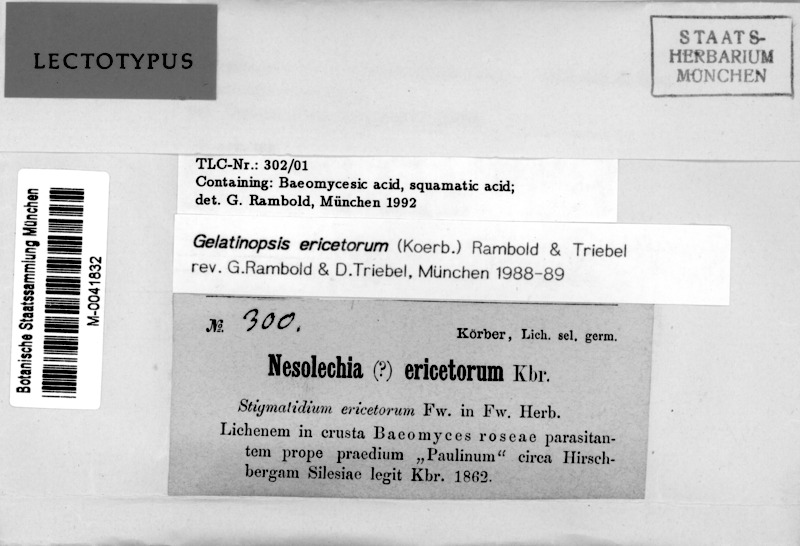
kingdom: Fungi
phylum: Ascomycota
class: Leotiomycetes
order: Helotiales
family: Cordieritidaceae
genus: Rhymbocarpus
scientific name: Rhymbocarpus ericetorum
